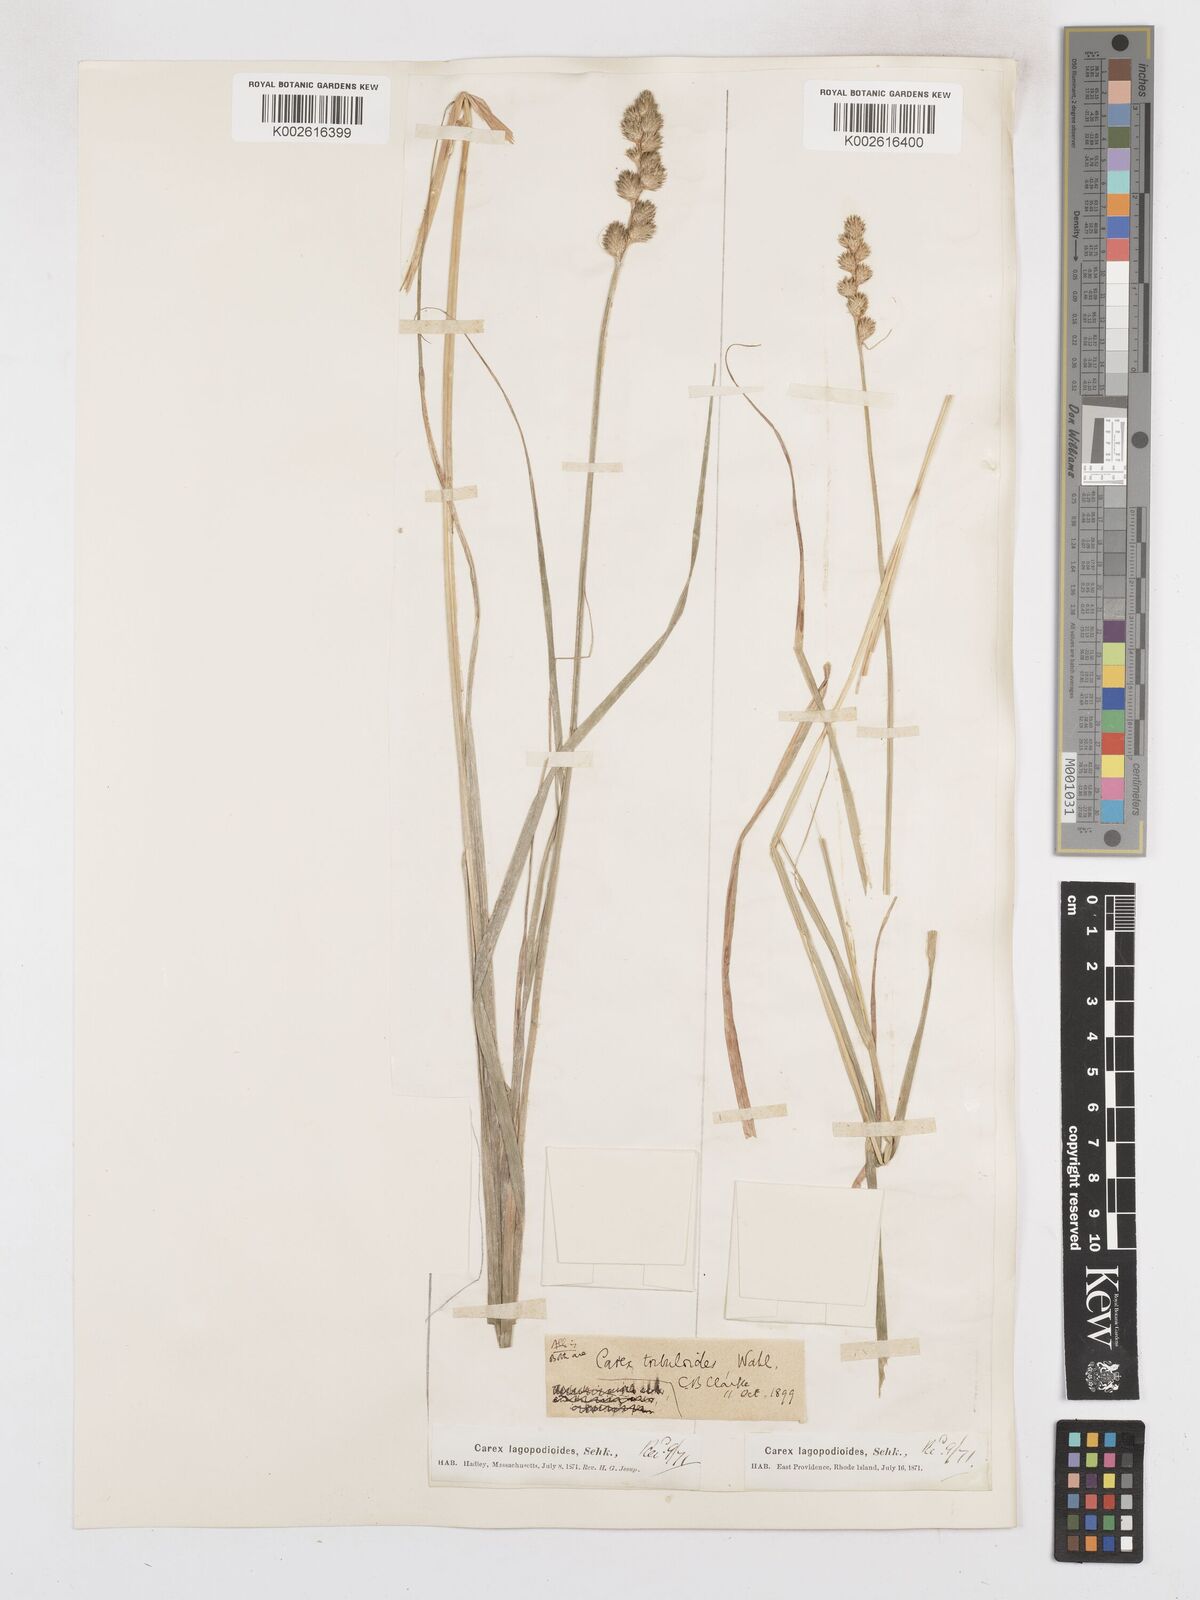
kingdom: Plantae
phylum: Tracheophyta
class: Liliopsida
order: Poales
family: Cyperaceae
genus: Carex
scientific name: Carex tribuloides
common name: Blunt broom sedge
